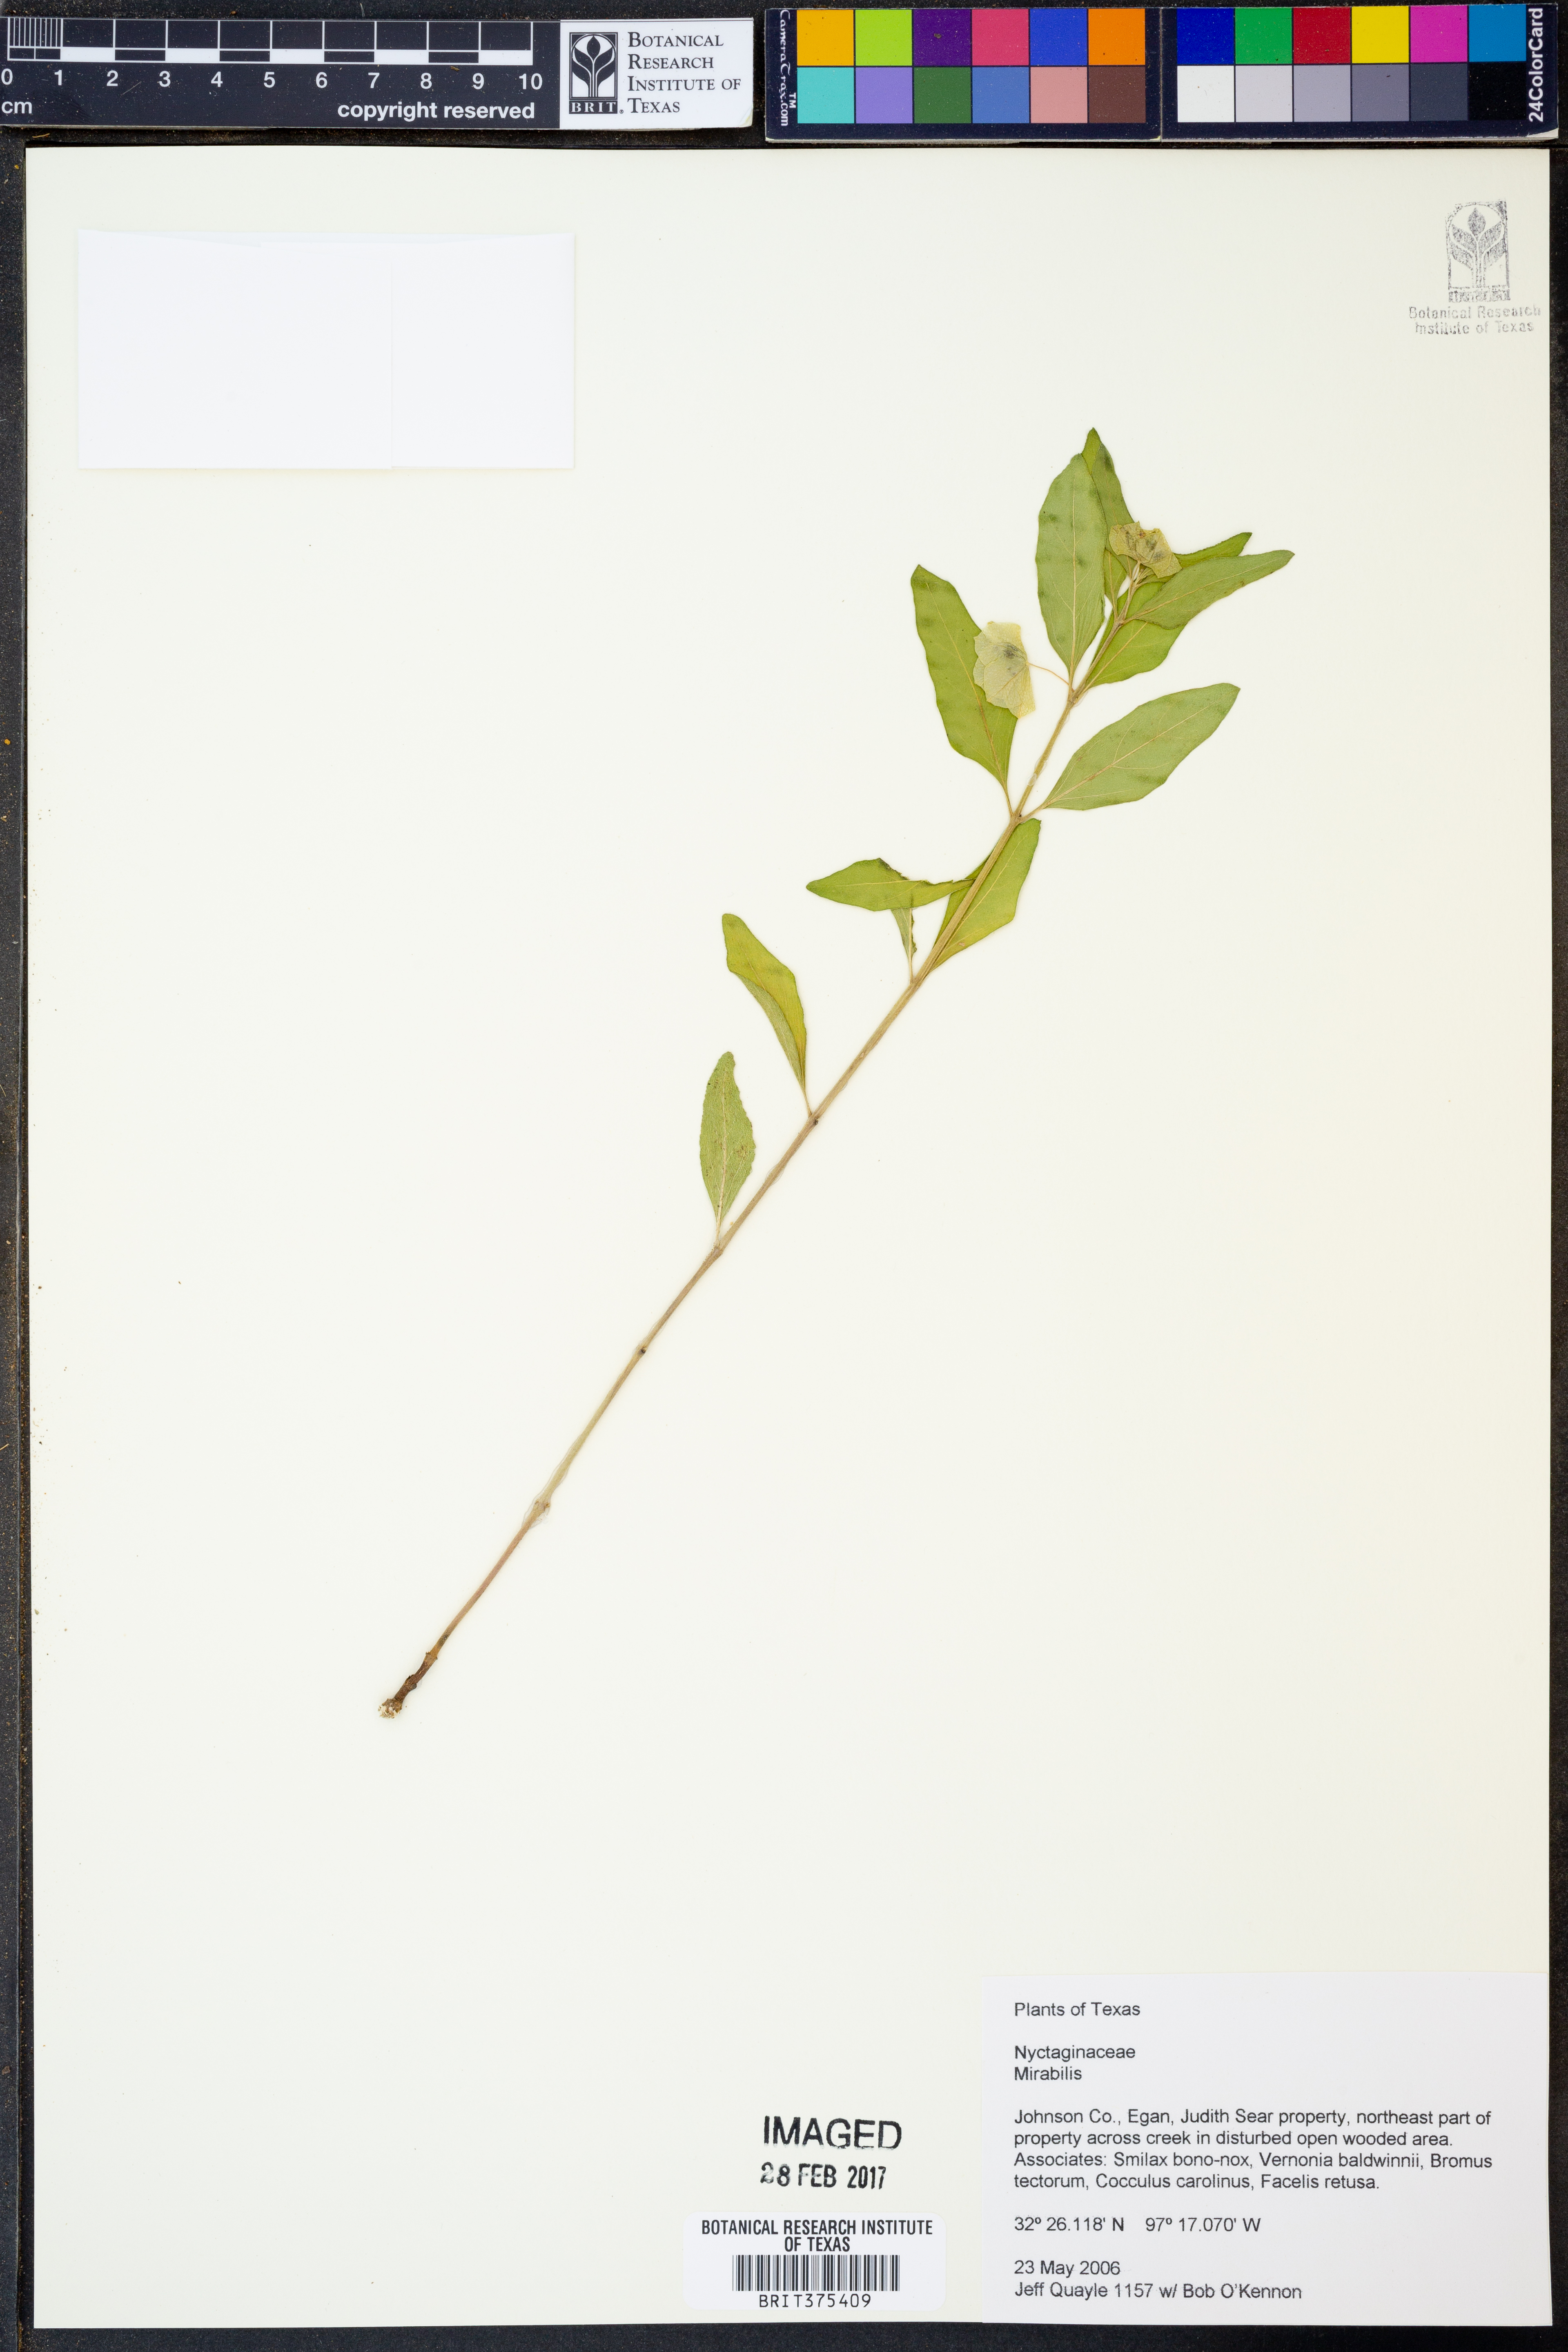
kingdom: Plantae
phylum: Tracheophyta
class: Magnoliopsida
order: Caryophyllales
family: Nyctaginaceae
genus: Mirabilis
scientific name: Mirabilis
